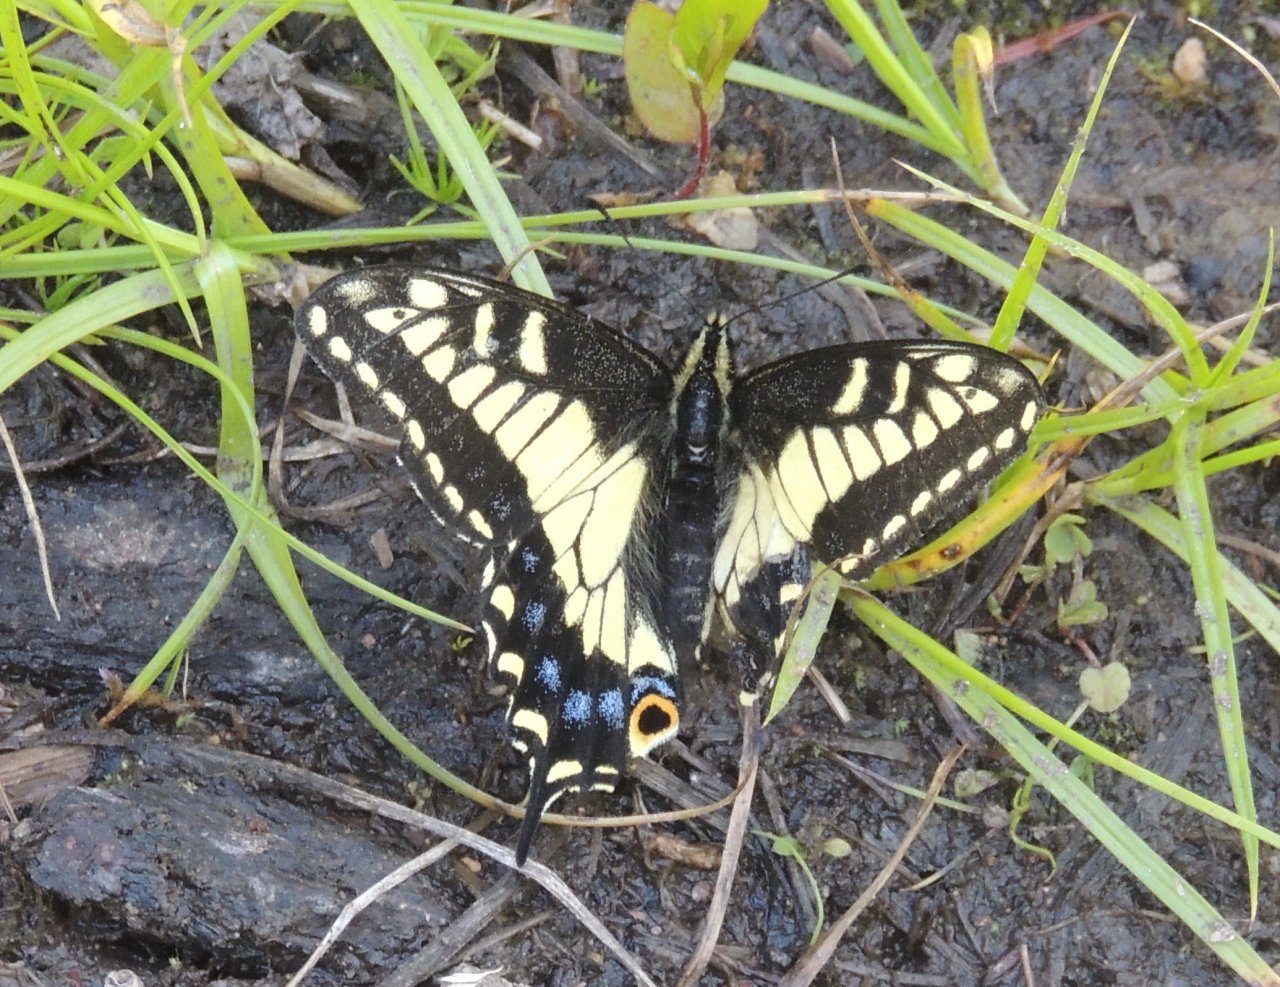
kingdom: Animalia
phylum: Arthropoda
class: Insecta
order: Lepidoptera
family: Papilionidae
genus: Papilio
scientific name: Papilio zelicaon
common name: Anise Swallowtail
